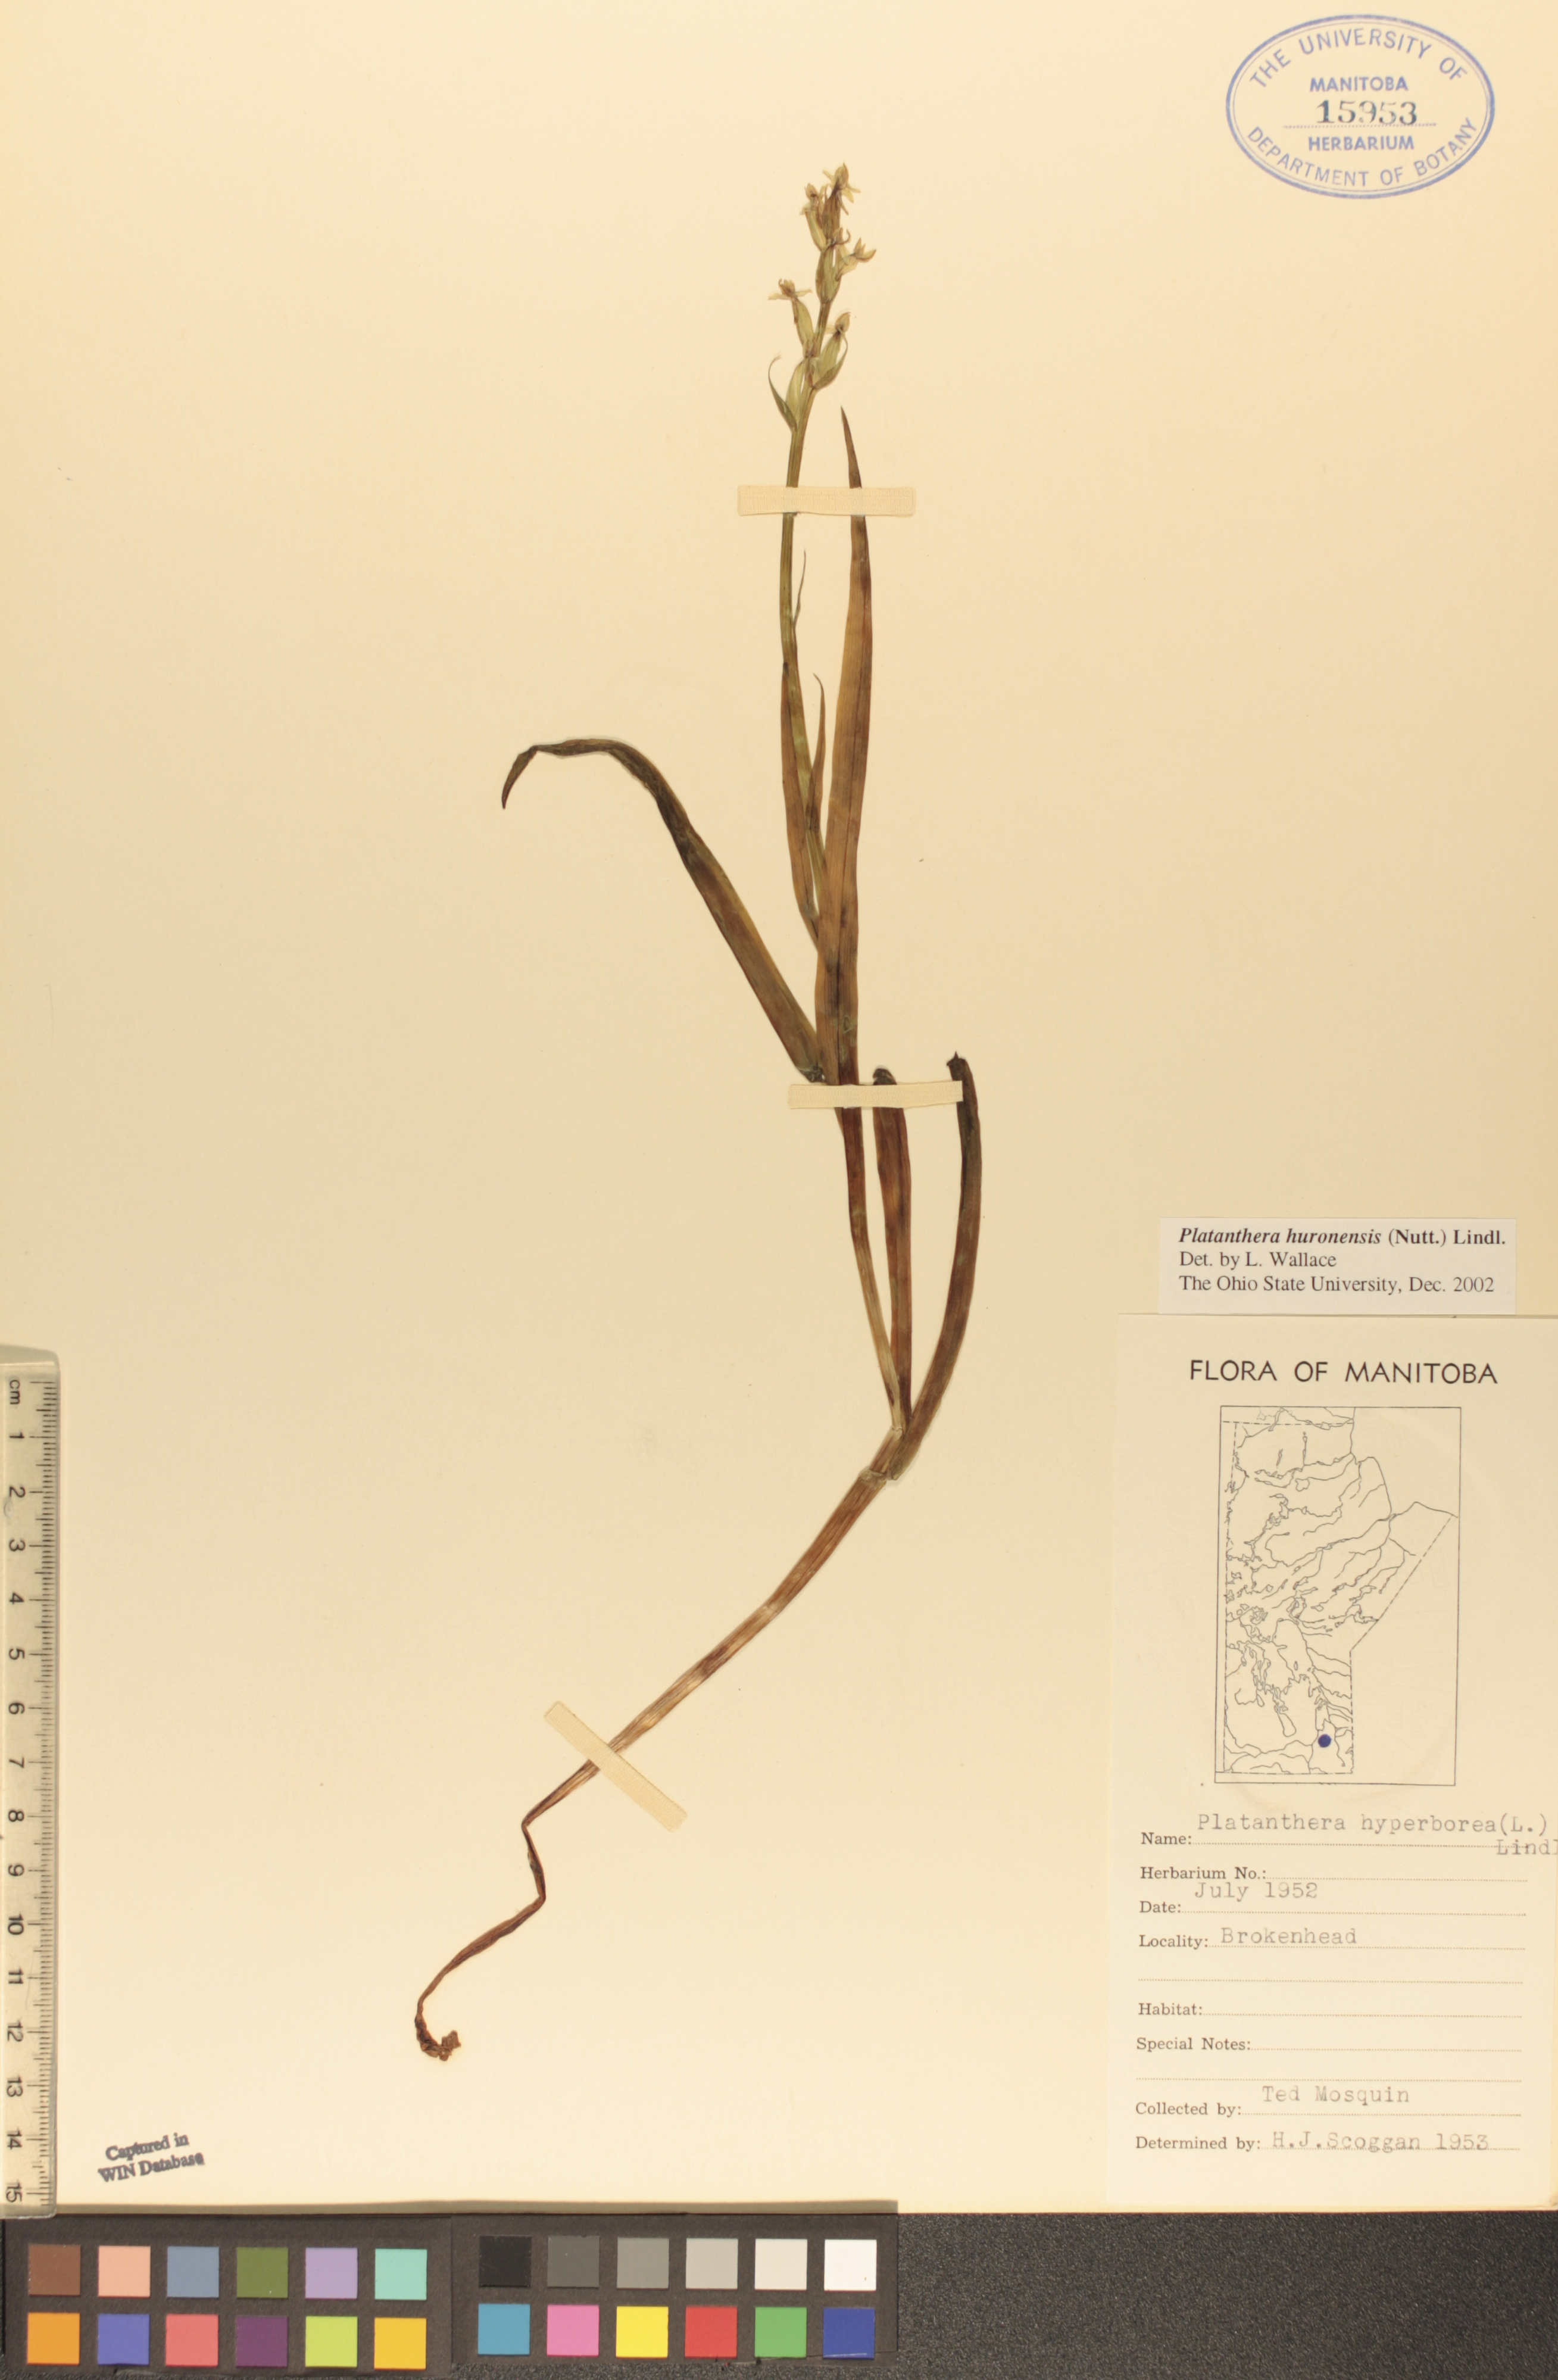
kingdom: Plantae
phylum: Tracheophyta
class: Liliopsida
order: Asparagales
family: Orchidaceae
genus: Platanthera
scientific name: Platanthera hyperborea
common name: Northern green orchid
